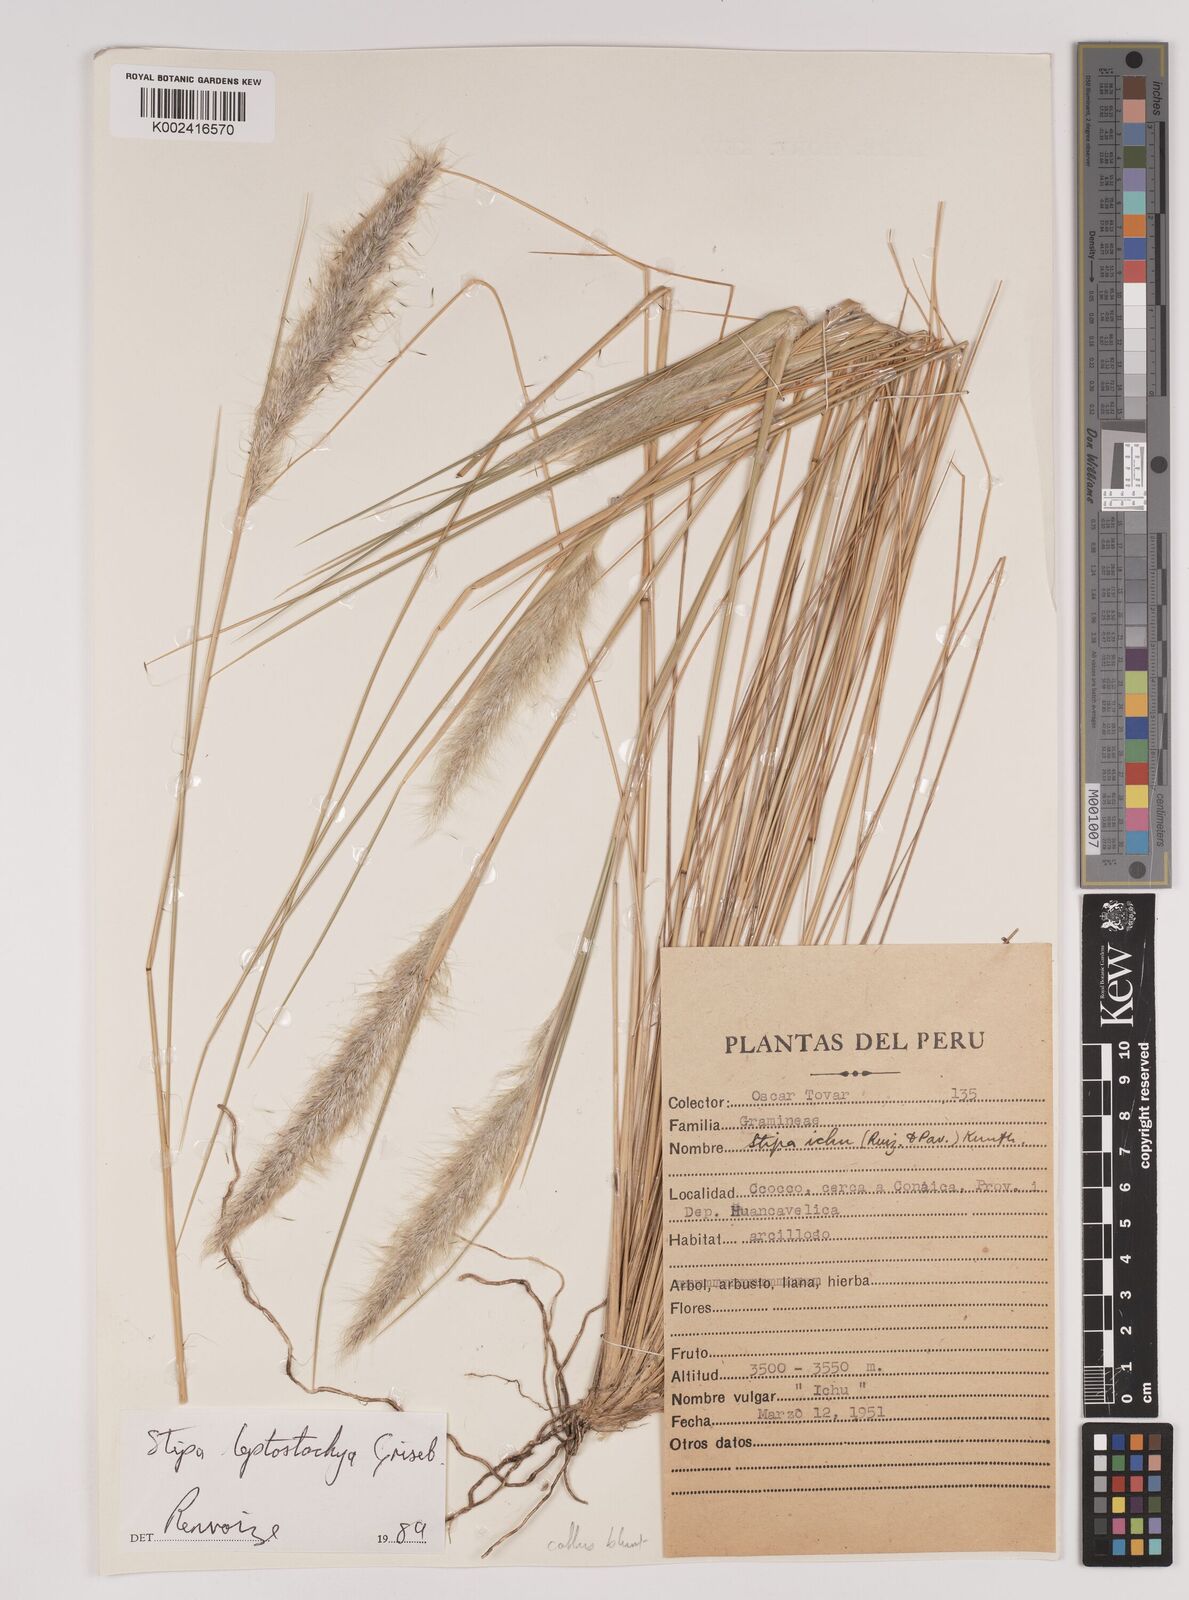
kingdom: Plantae
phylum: Tracheophyta
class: Liliopsida
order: Poales
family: Poaceae
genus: Jarava
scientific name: Jarava leptostachya
